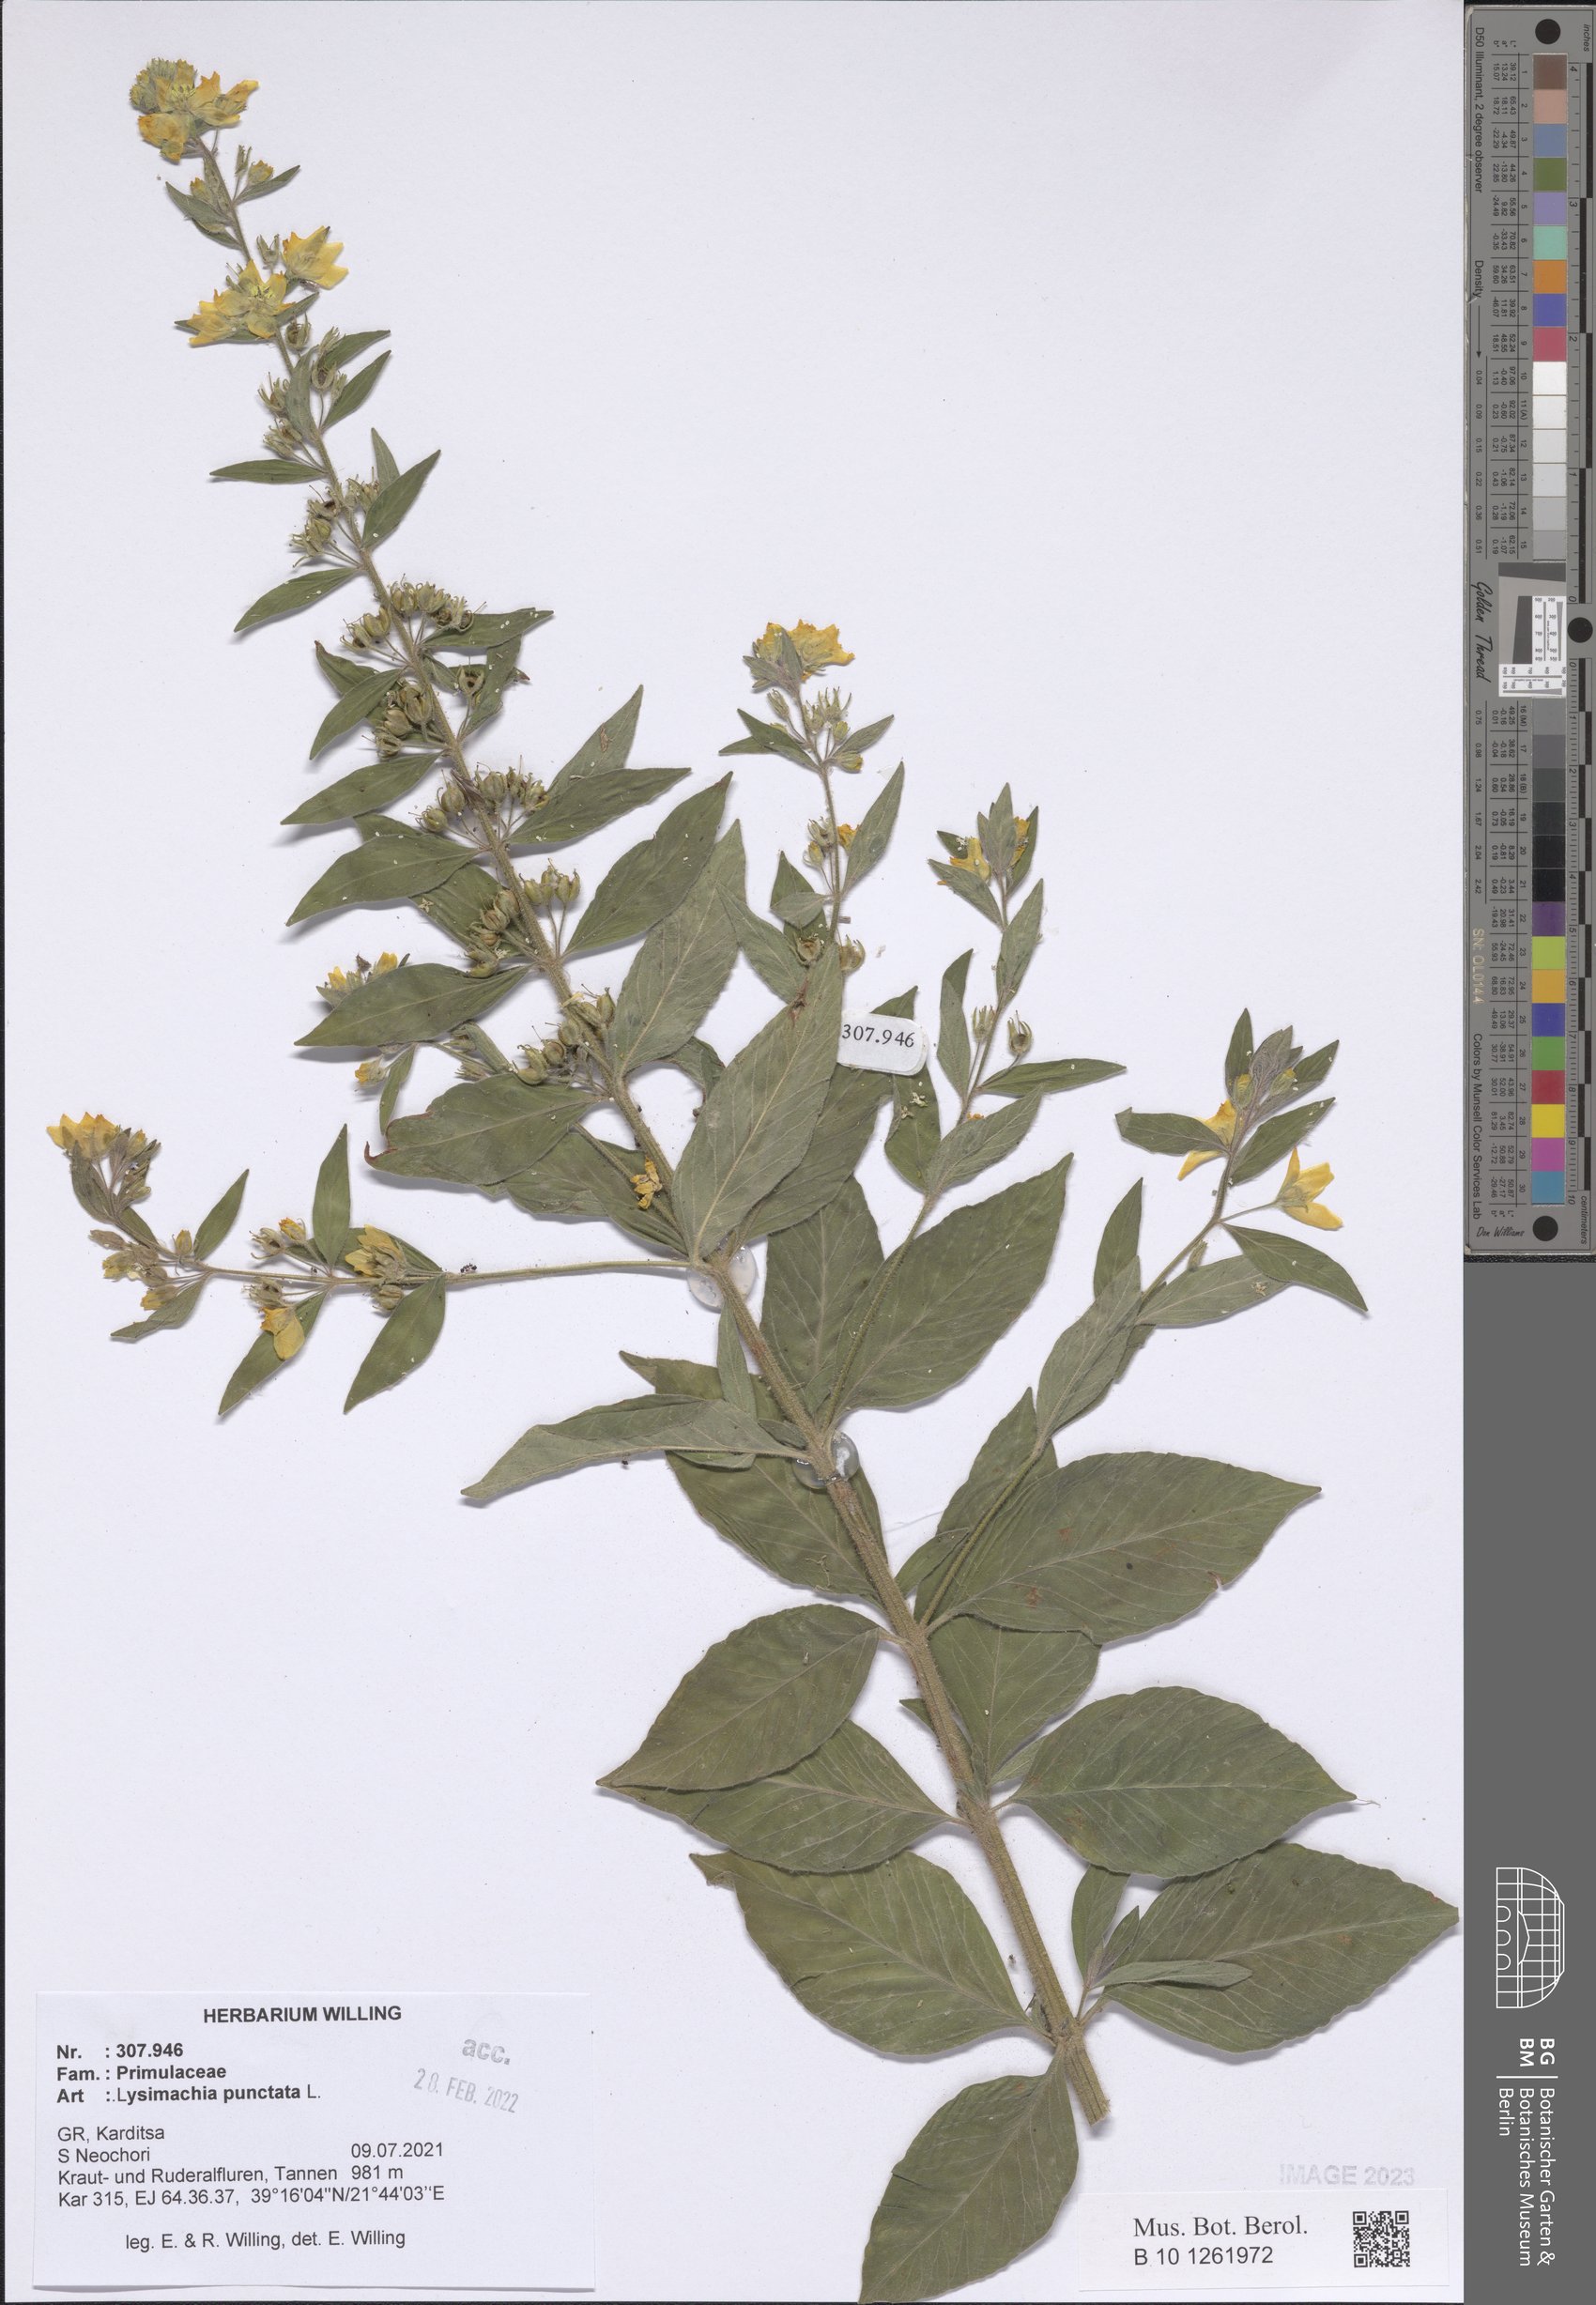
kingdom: Plantae
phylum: Tracheophyta
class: Magnoliopsida
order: Ericales
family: Primulaceae
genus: Lysimachia
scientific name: Lysimachia punctata
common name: Dotted loosestrife
